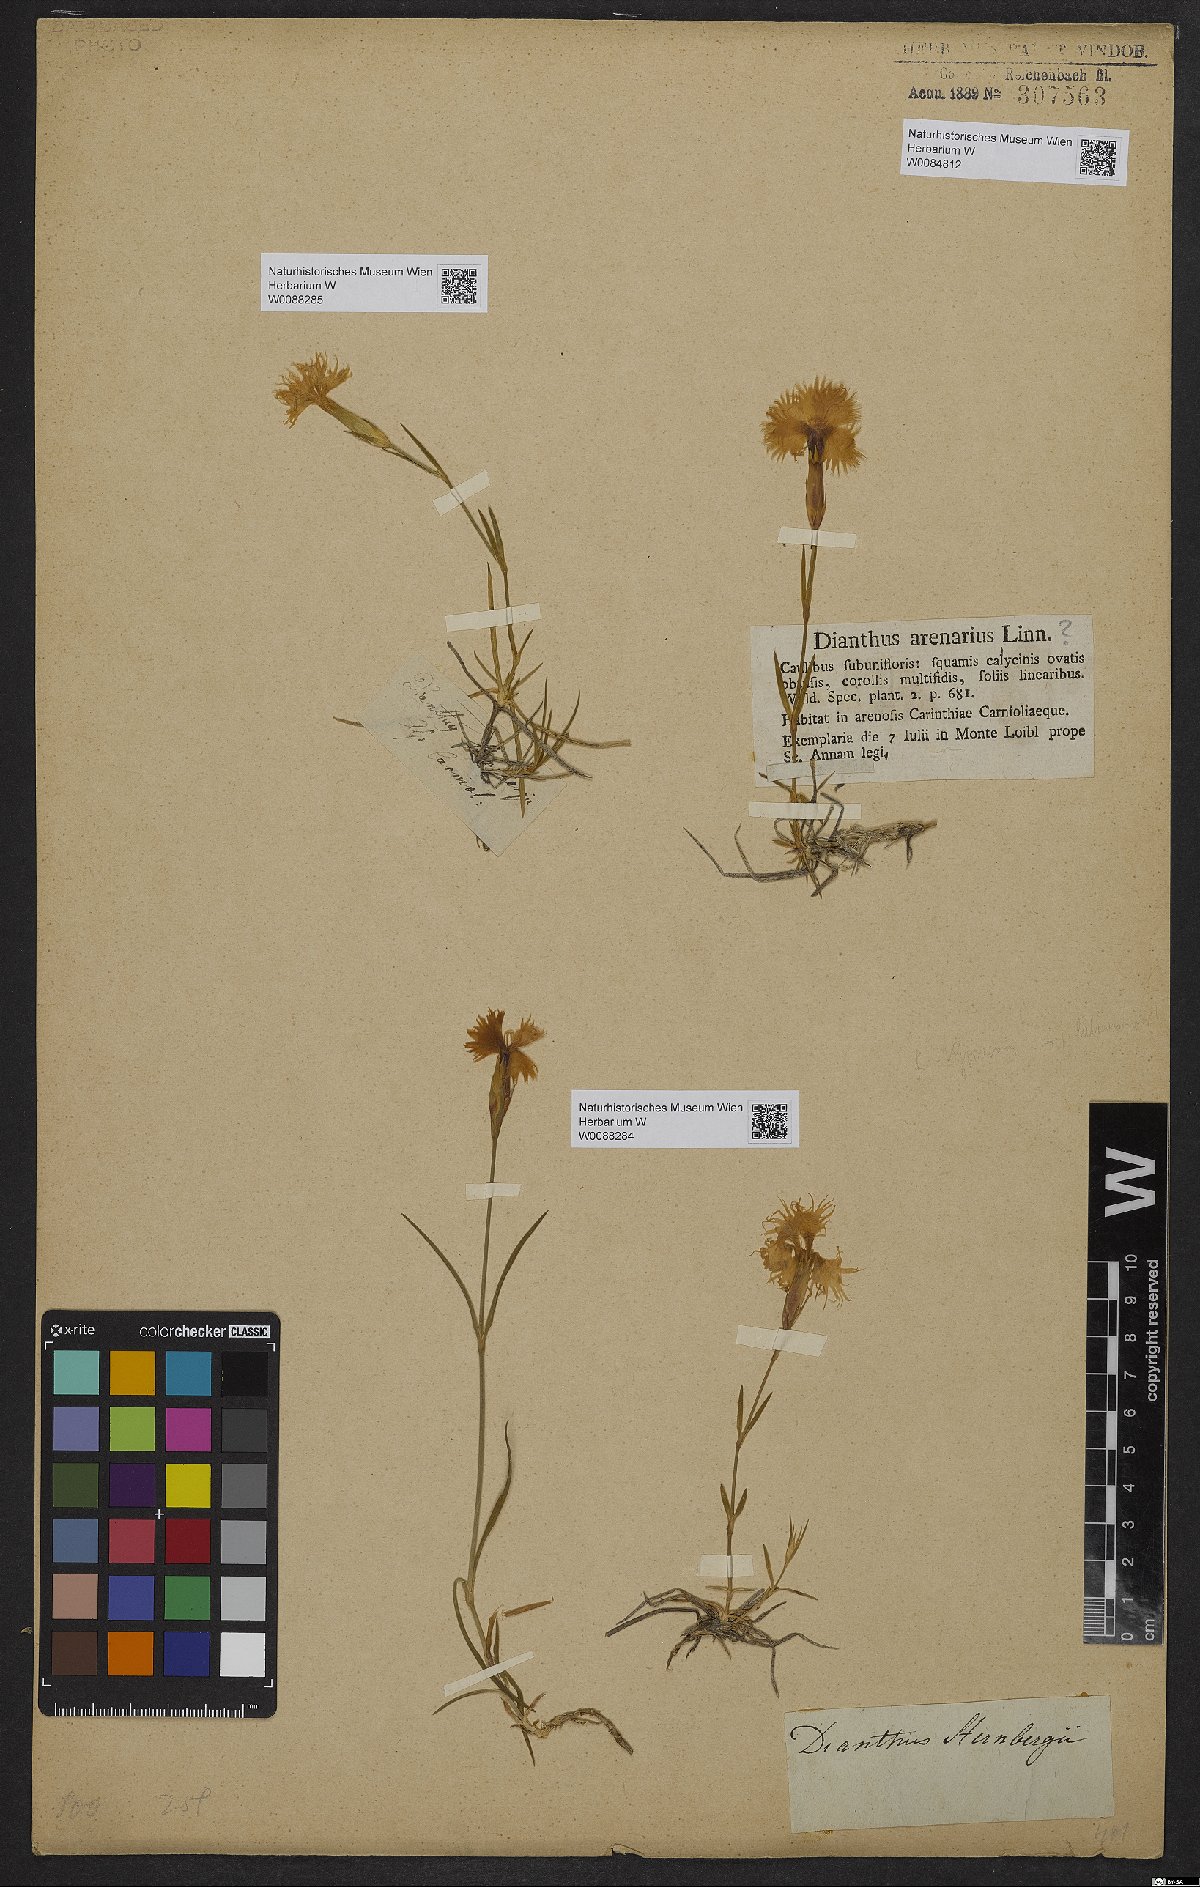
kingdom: Plantae
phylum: Tracheophyta
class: Magnoliopsida
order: Caryophyllales
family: Caryophyllaceae
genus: Dianthus
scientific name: Dianthus monspessulanus
